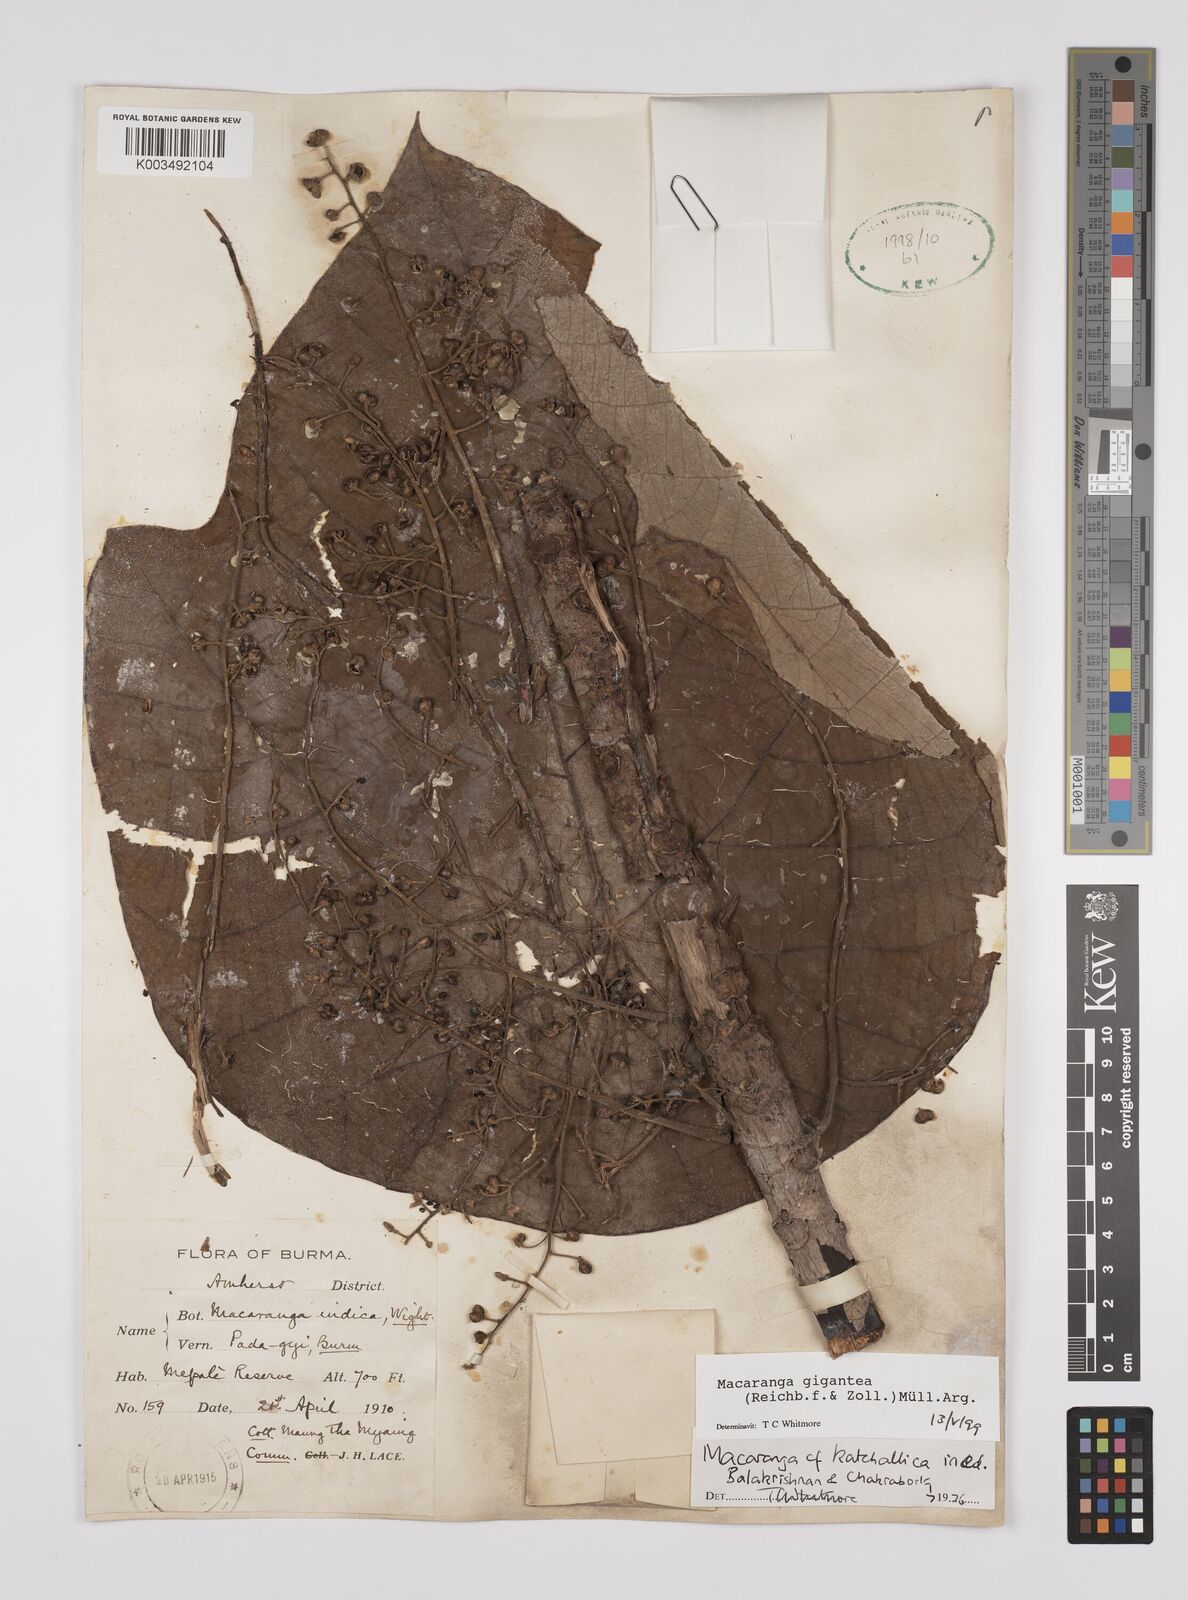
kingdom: Plantae
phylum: Tracheophyta
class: Magnoliopsida
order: Malpighiales
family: Euphorbiaceae
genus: Macaranga
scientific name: Macaranga gigantea
